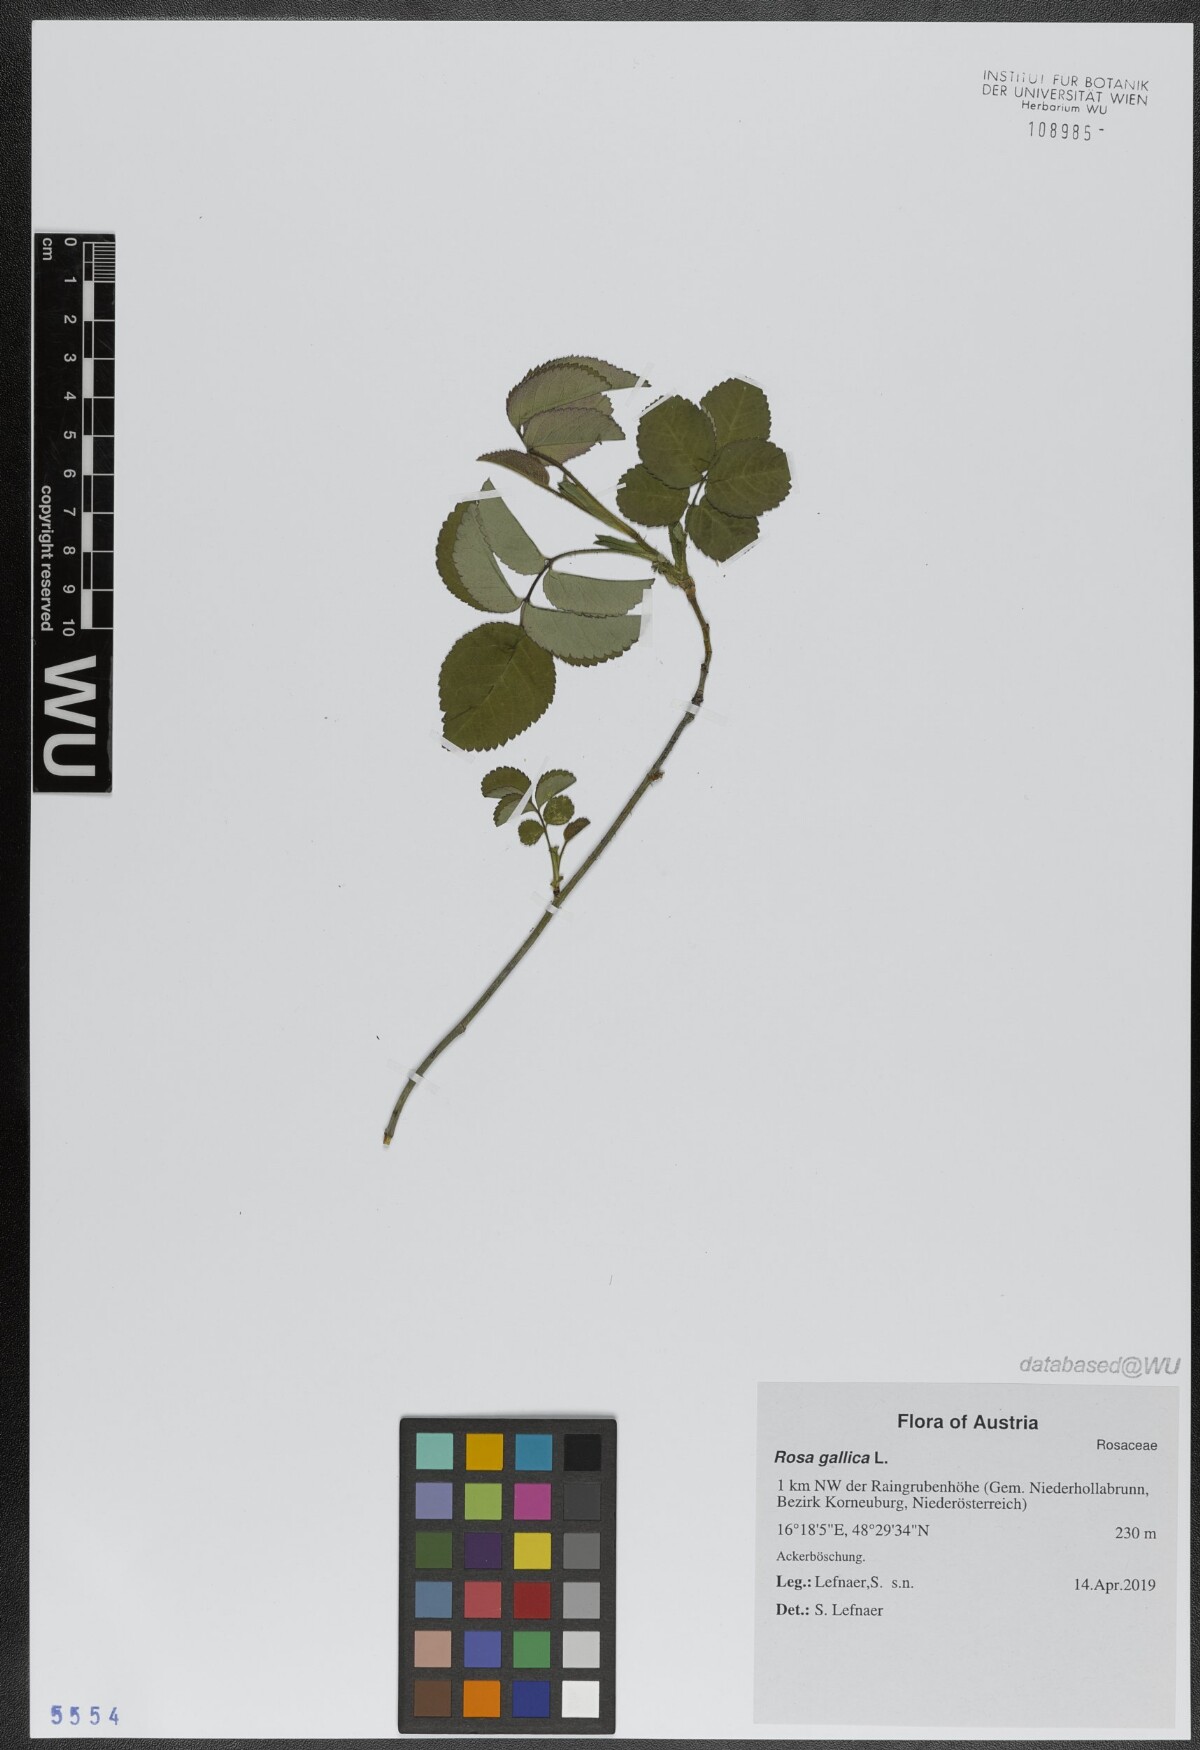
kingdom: Plantae
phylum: Tracheophyta
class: Magnoliopsida
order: Rosales
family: Rosaceae
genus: Rosa
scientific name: Rosa gallica
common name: French rose
